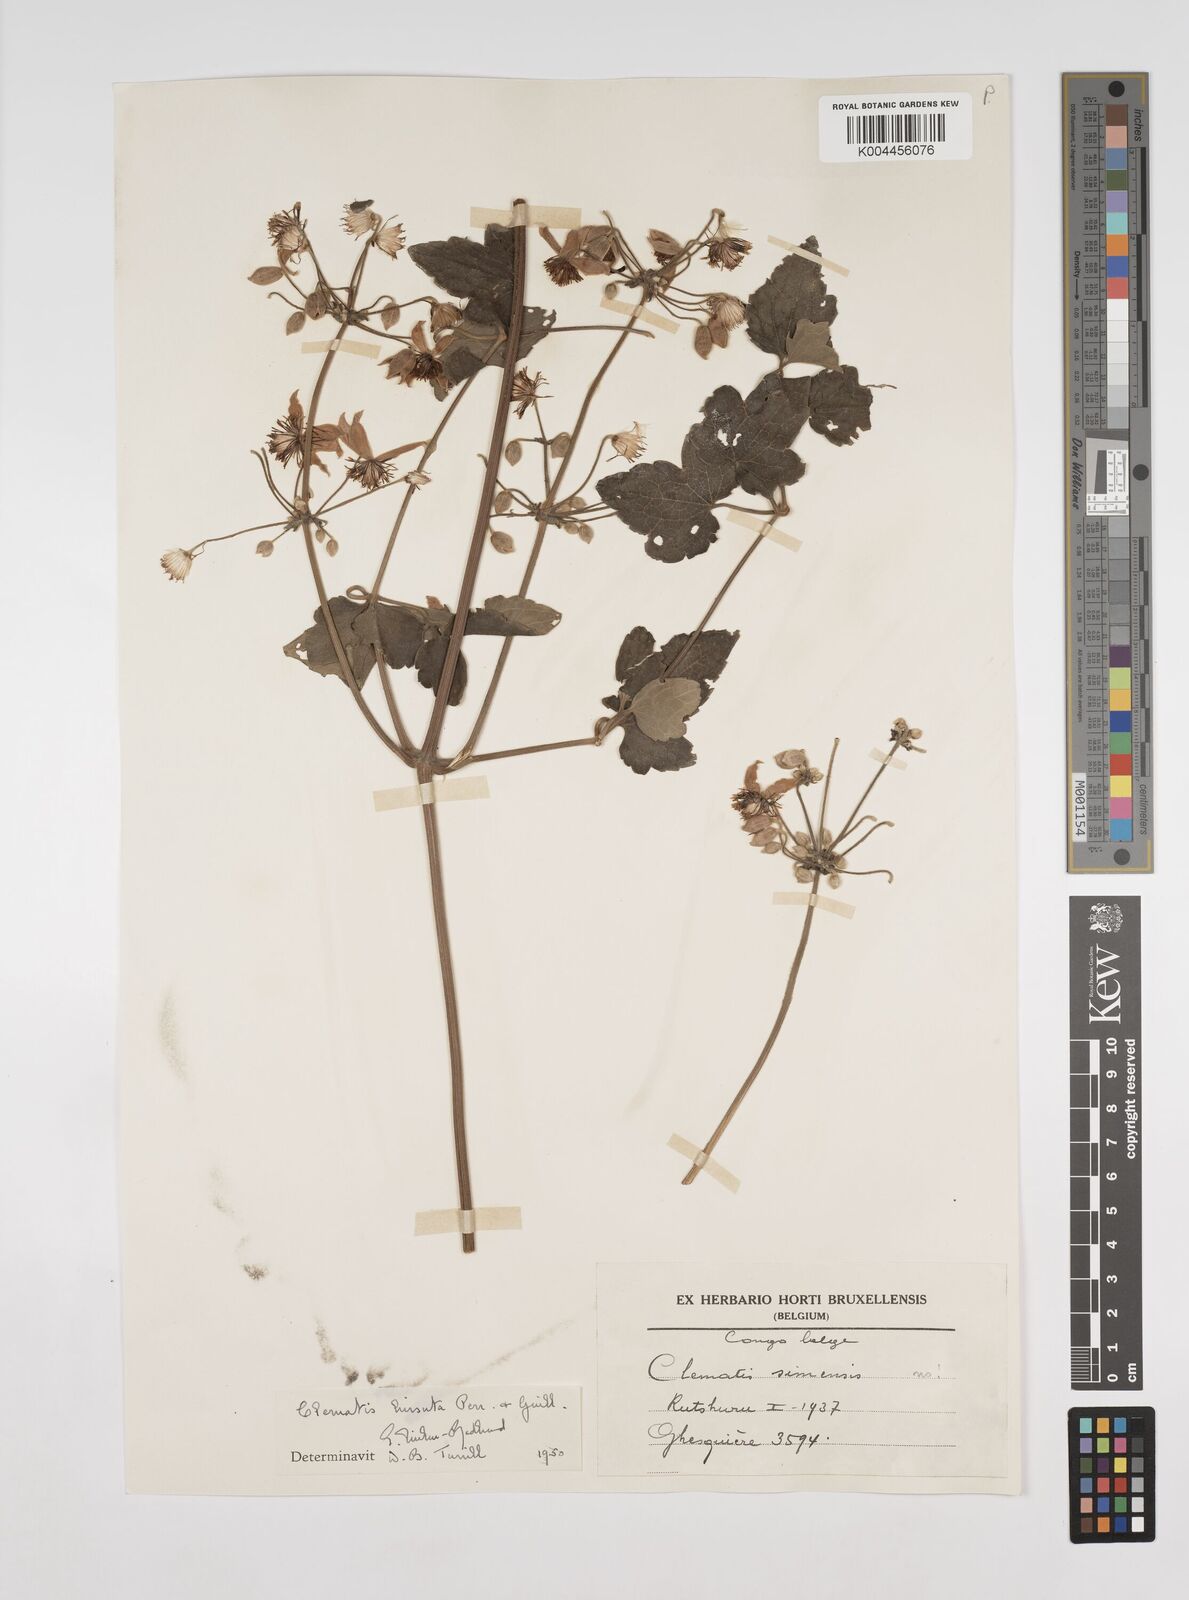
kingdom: Plantae
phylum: Tracheophyta
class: Magnoliopsida
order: Ranunculales
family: Ranunculaceae
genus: Clematis
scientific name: Clematis
